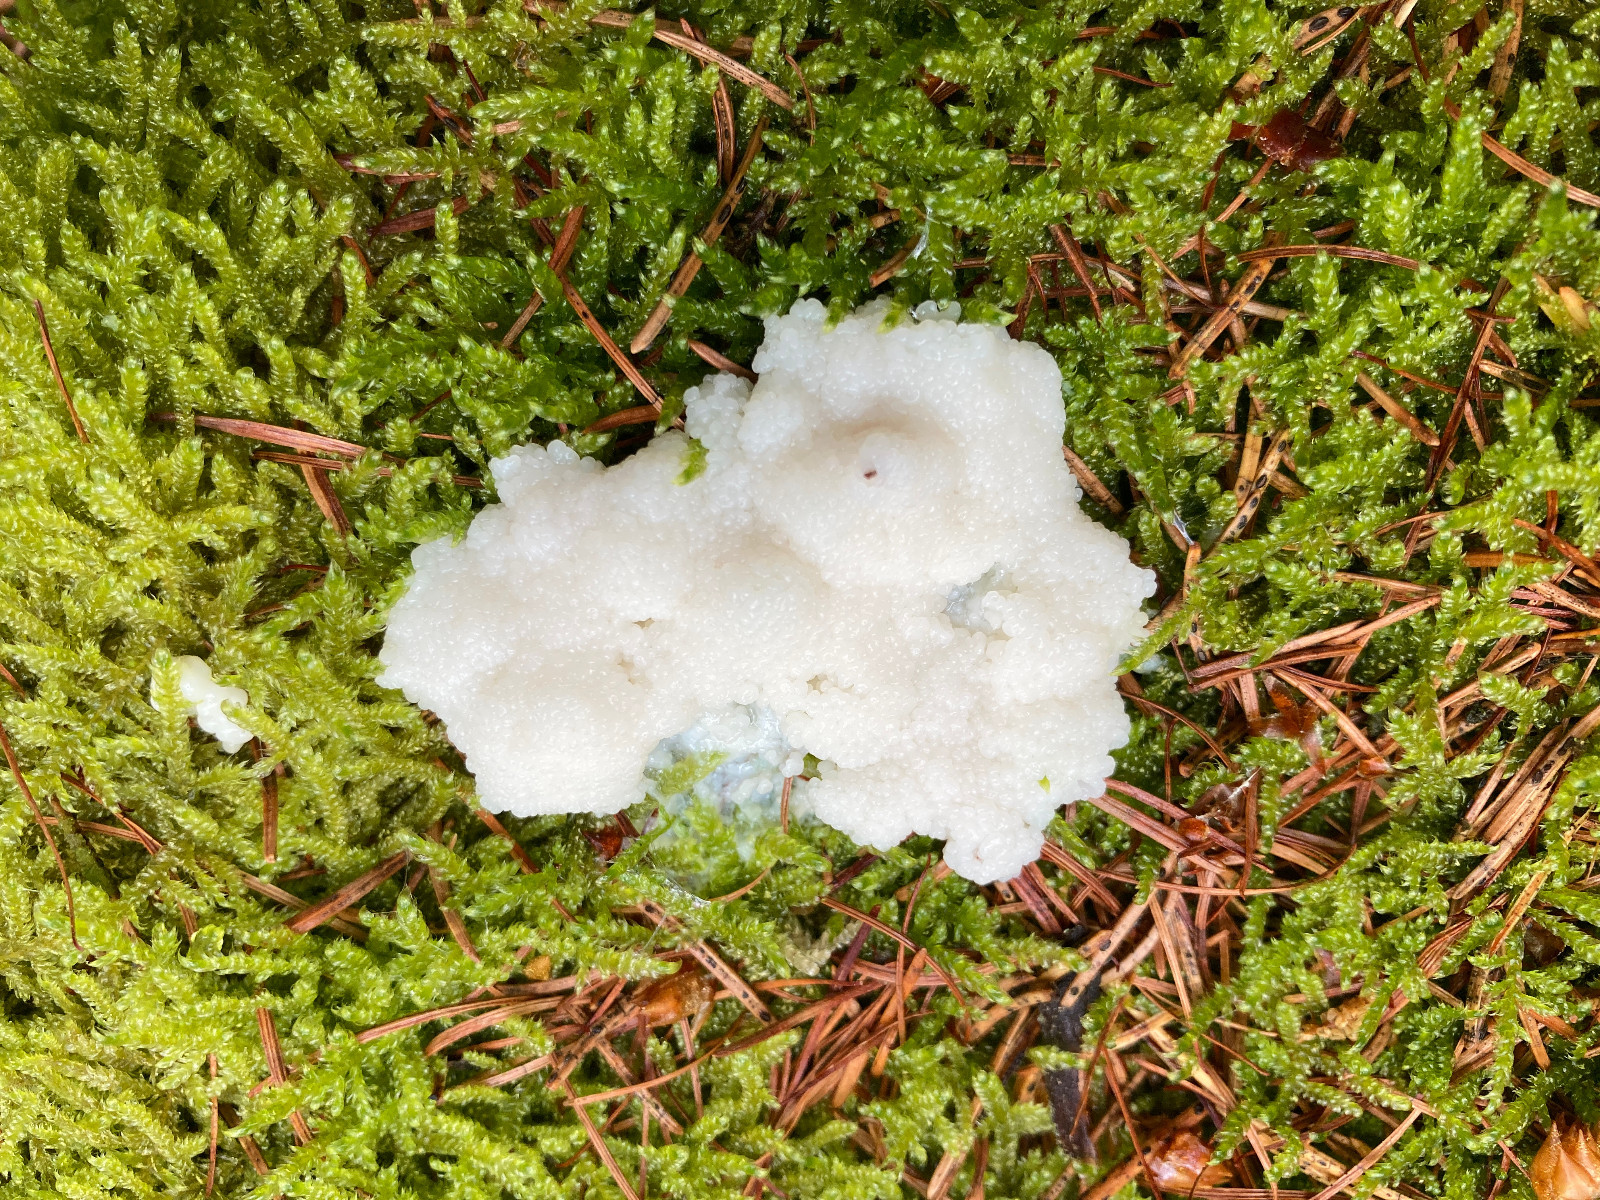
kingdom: Protozoa
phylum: Mycetozoa
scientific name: Mycetozoa
